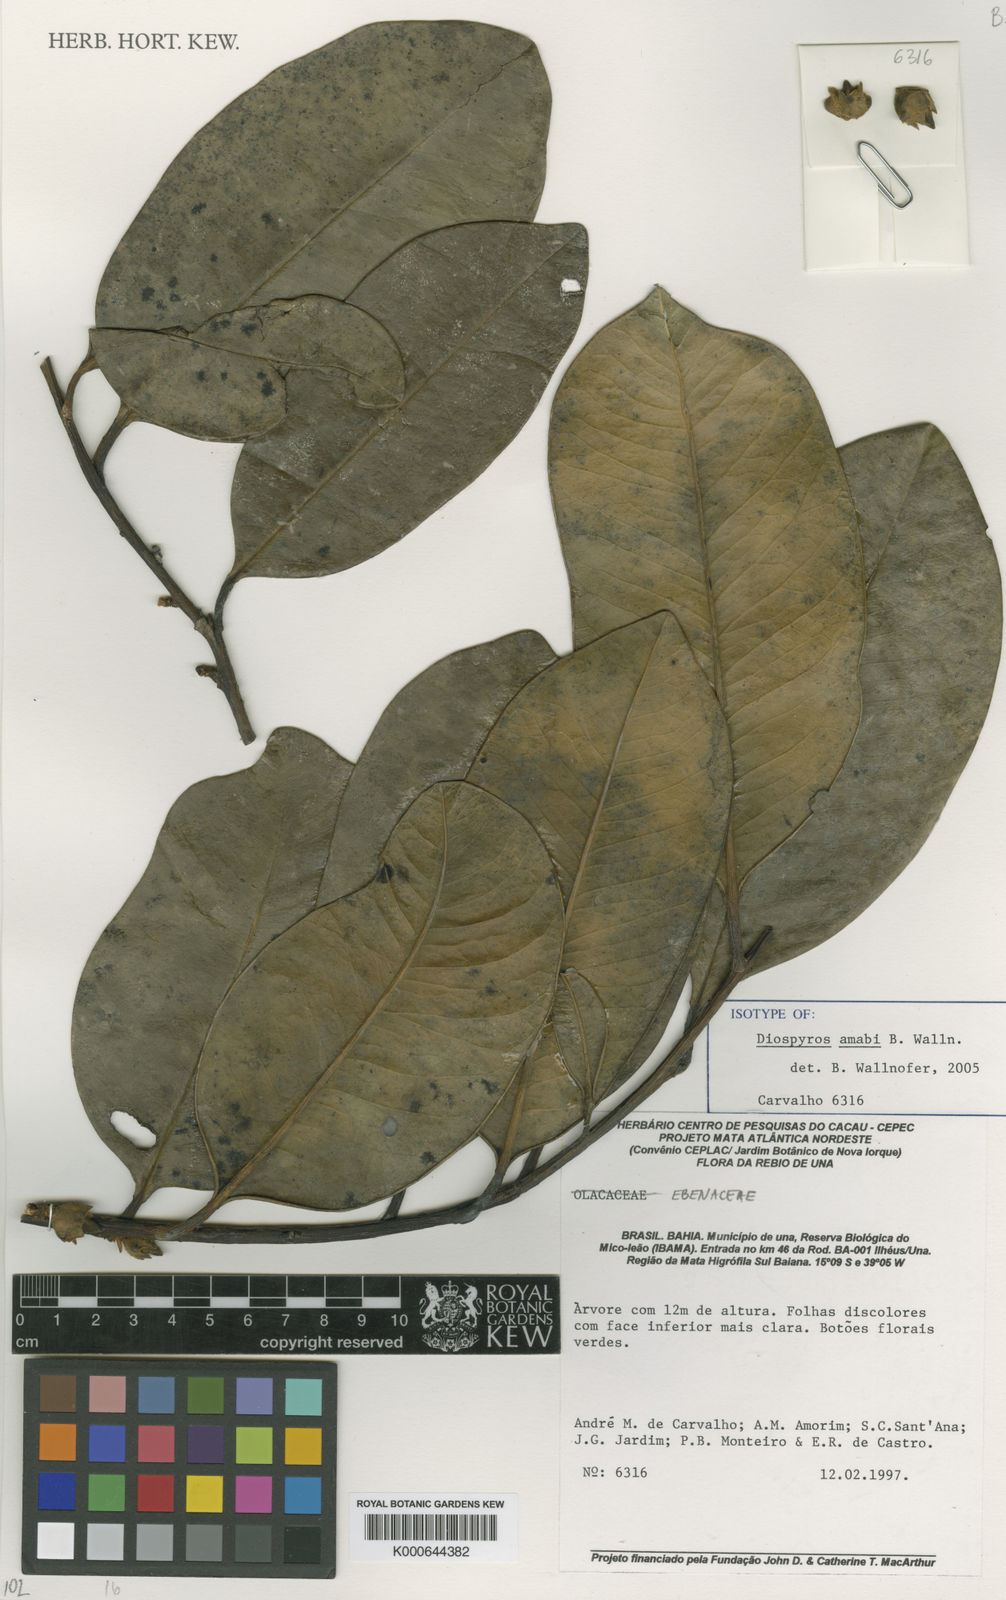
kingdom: Plantae
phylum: Tracheophyta
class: Magnoliopsida
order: Ericales
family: Ebenaceae
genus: Diospyros
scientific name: Diospyros amabi
